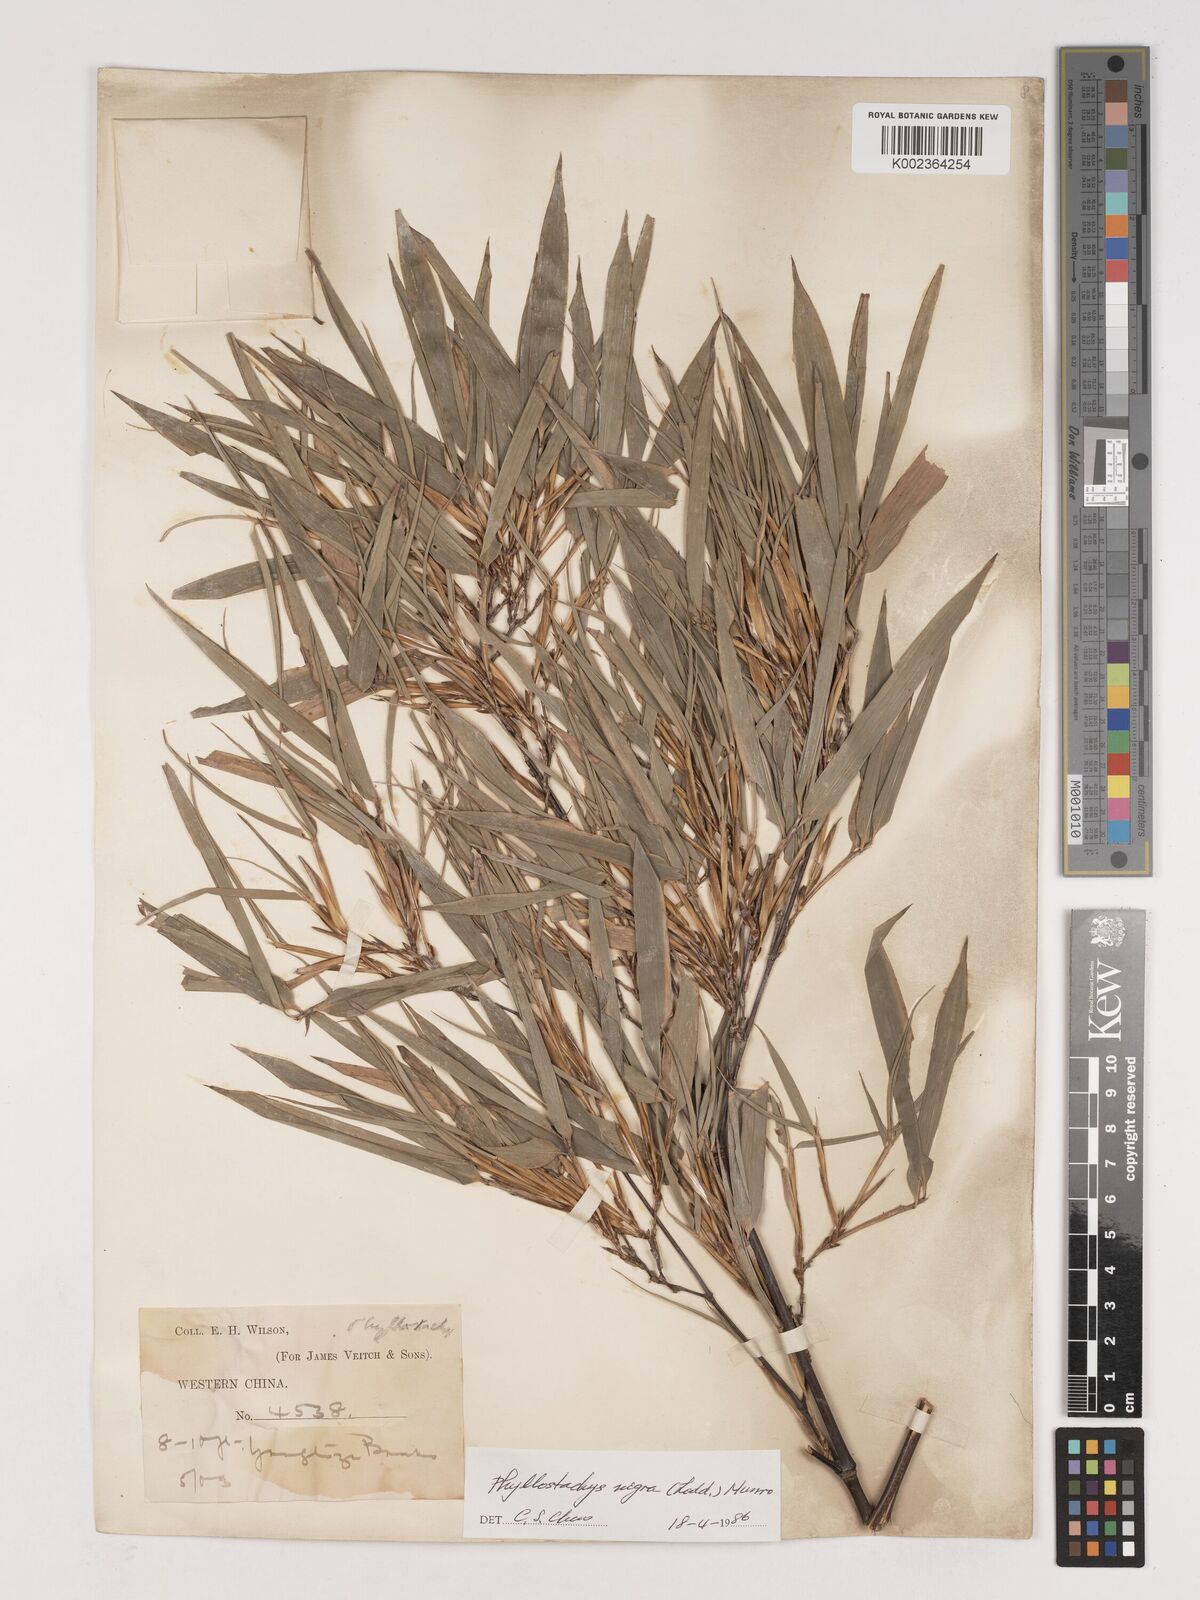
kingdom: Plantae
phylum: Tracheophyta
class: Liliopsida
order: Poales
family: Poaceae
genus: Phyllostachys
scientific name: Phyllostachys nigra
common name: Black bamboo
